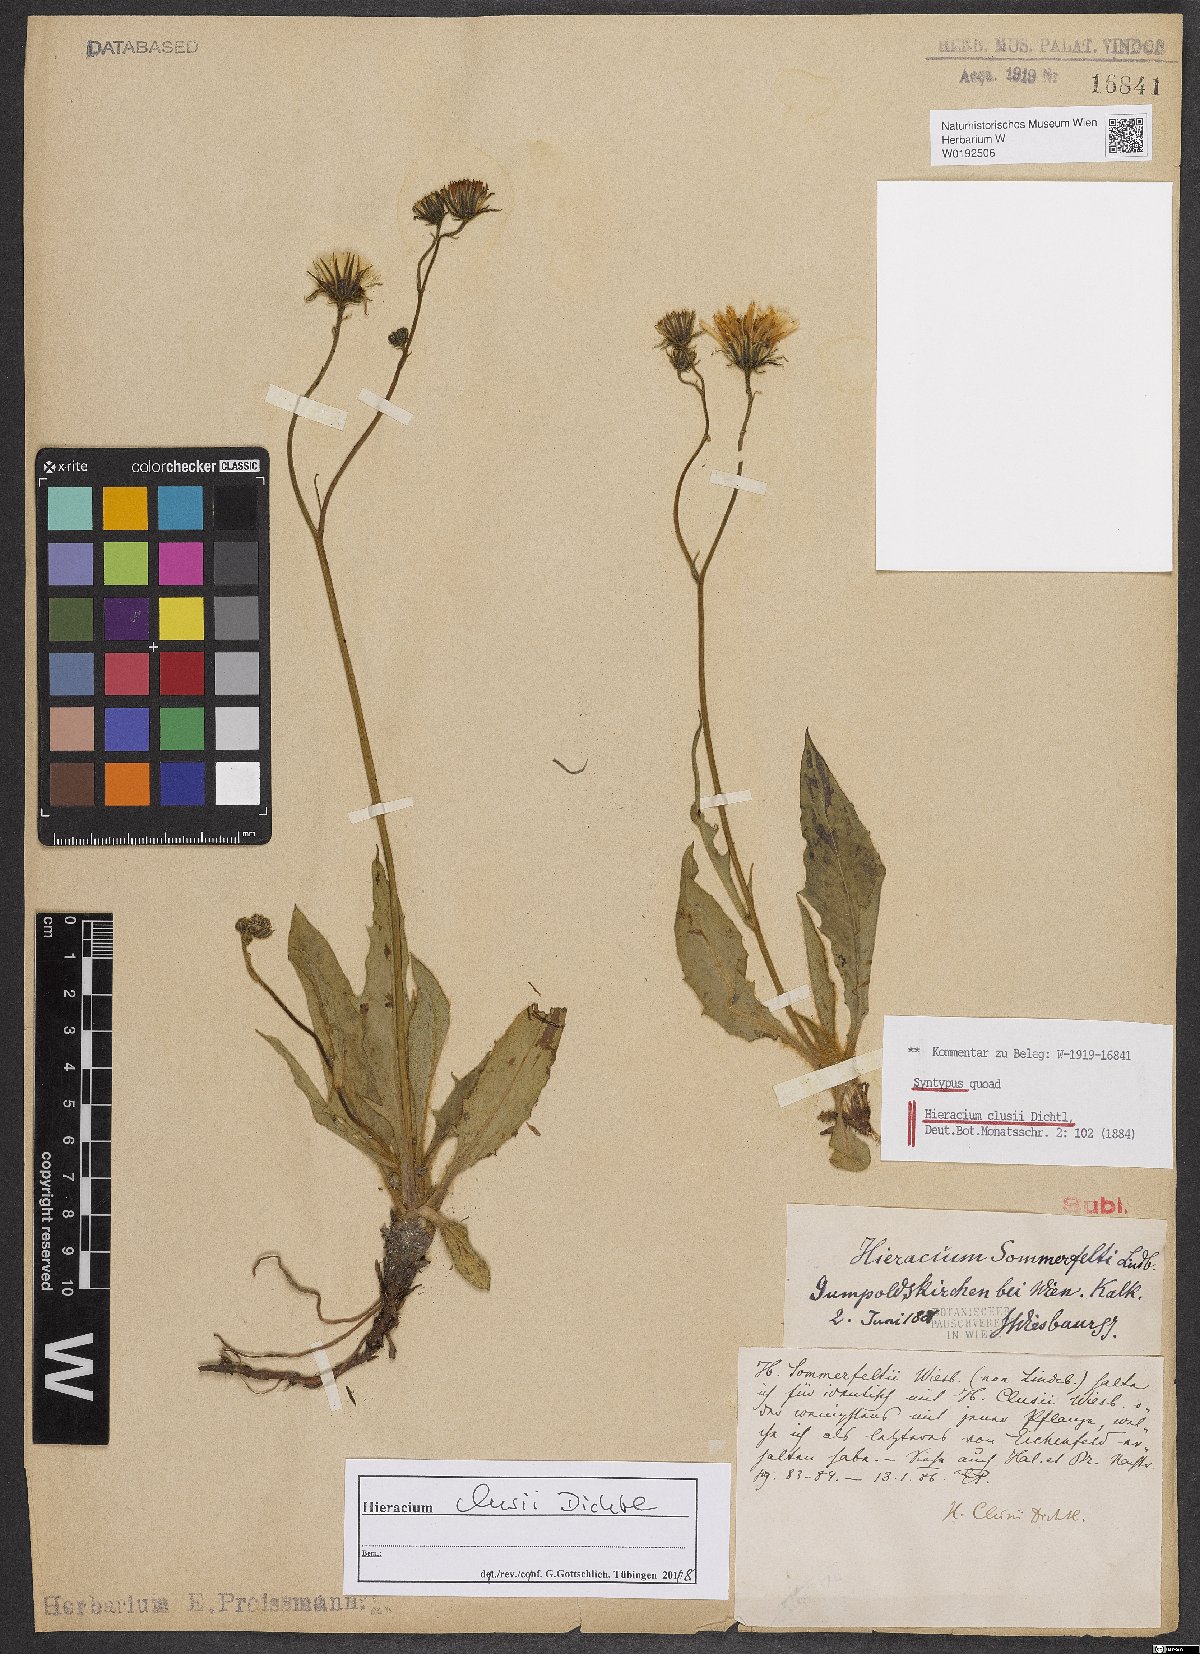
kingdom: Plantae
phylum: Tracheophyta
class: Magnoliopsida
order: Asterales
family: Asteraceae
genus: Hieracium
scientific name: Hieracium sommerfeltii
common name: Sommerfelt's hawkweed
